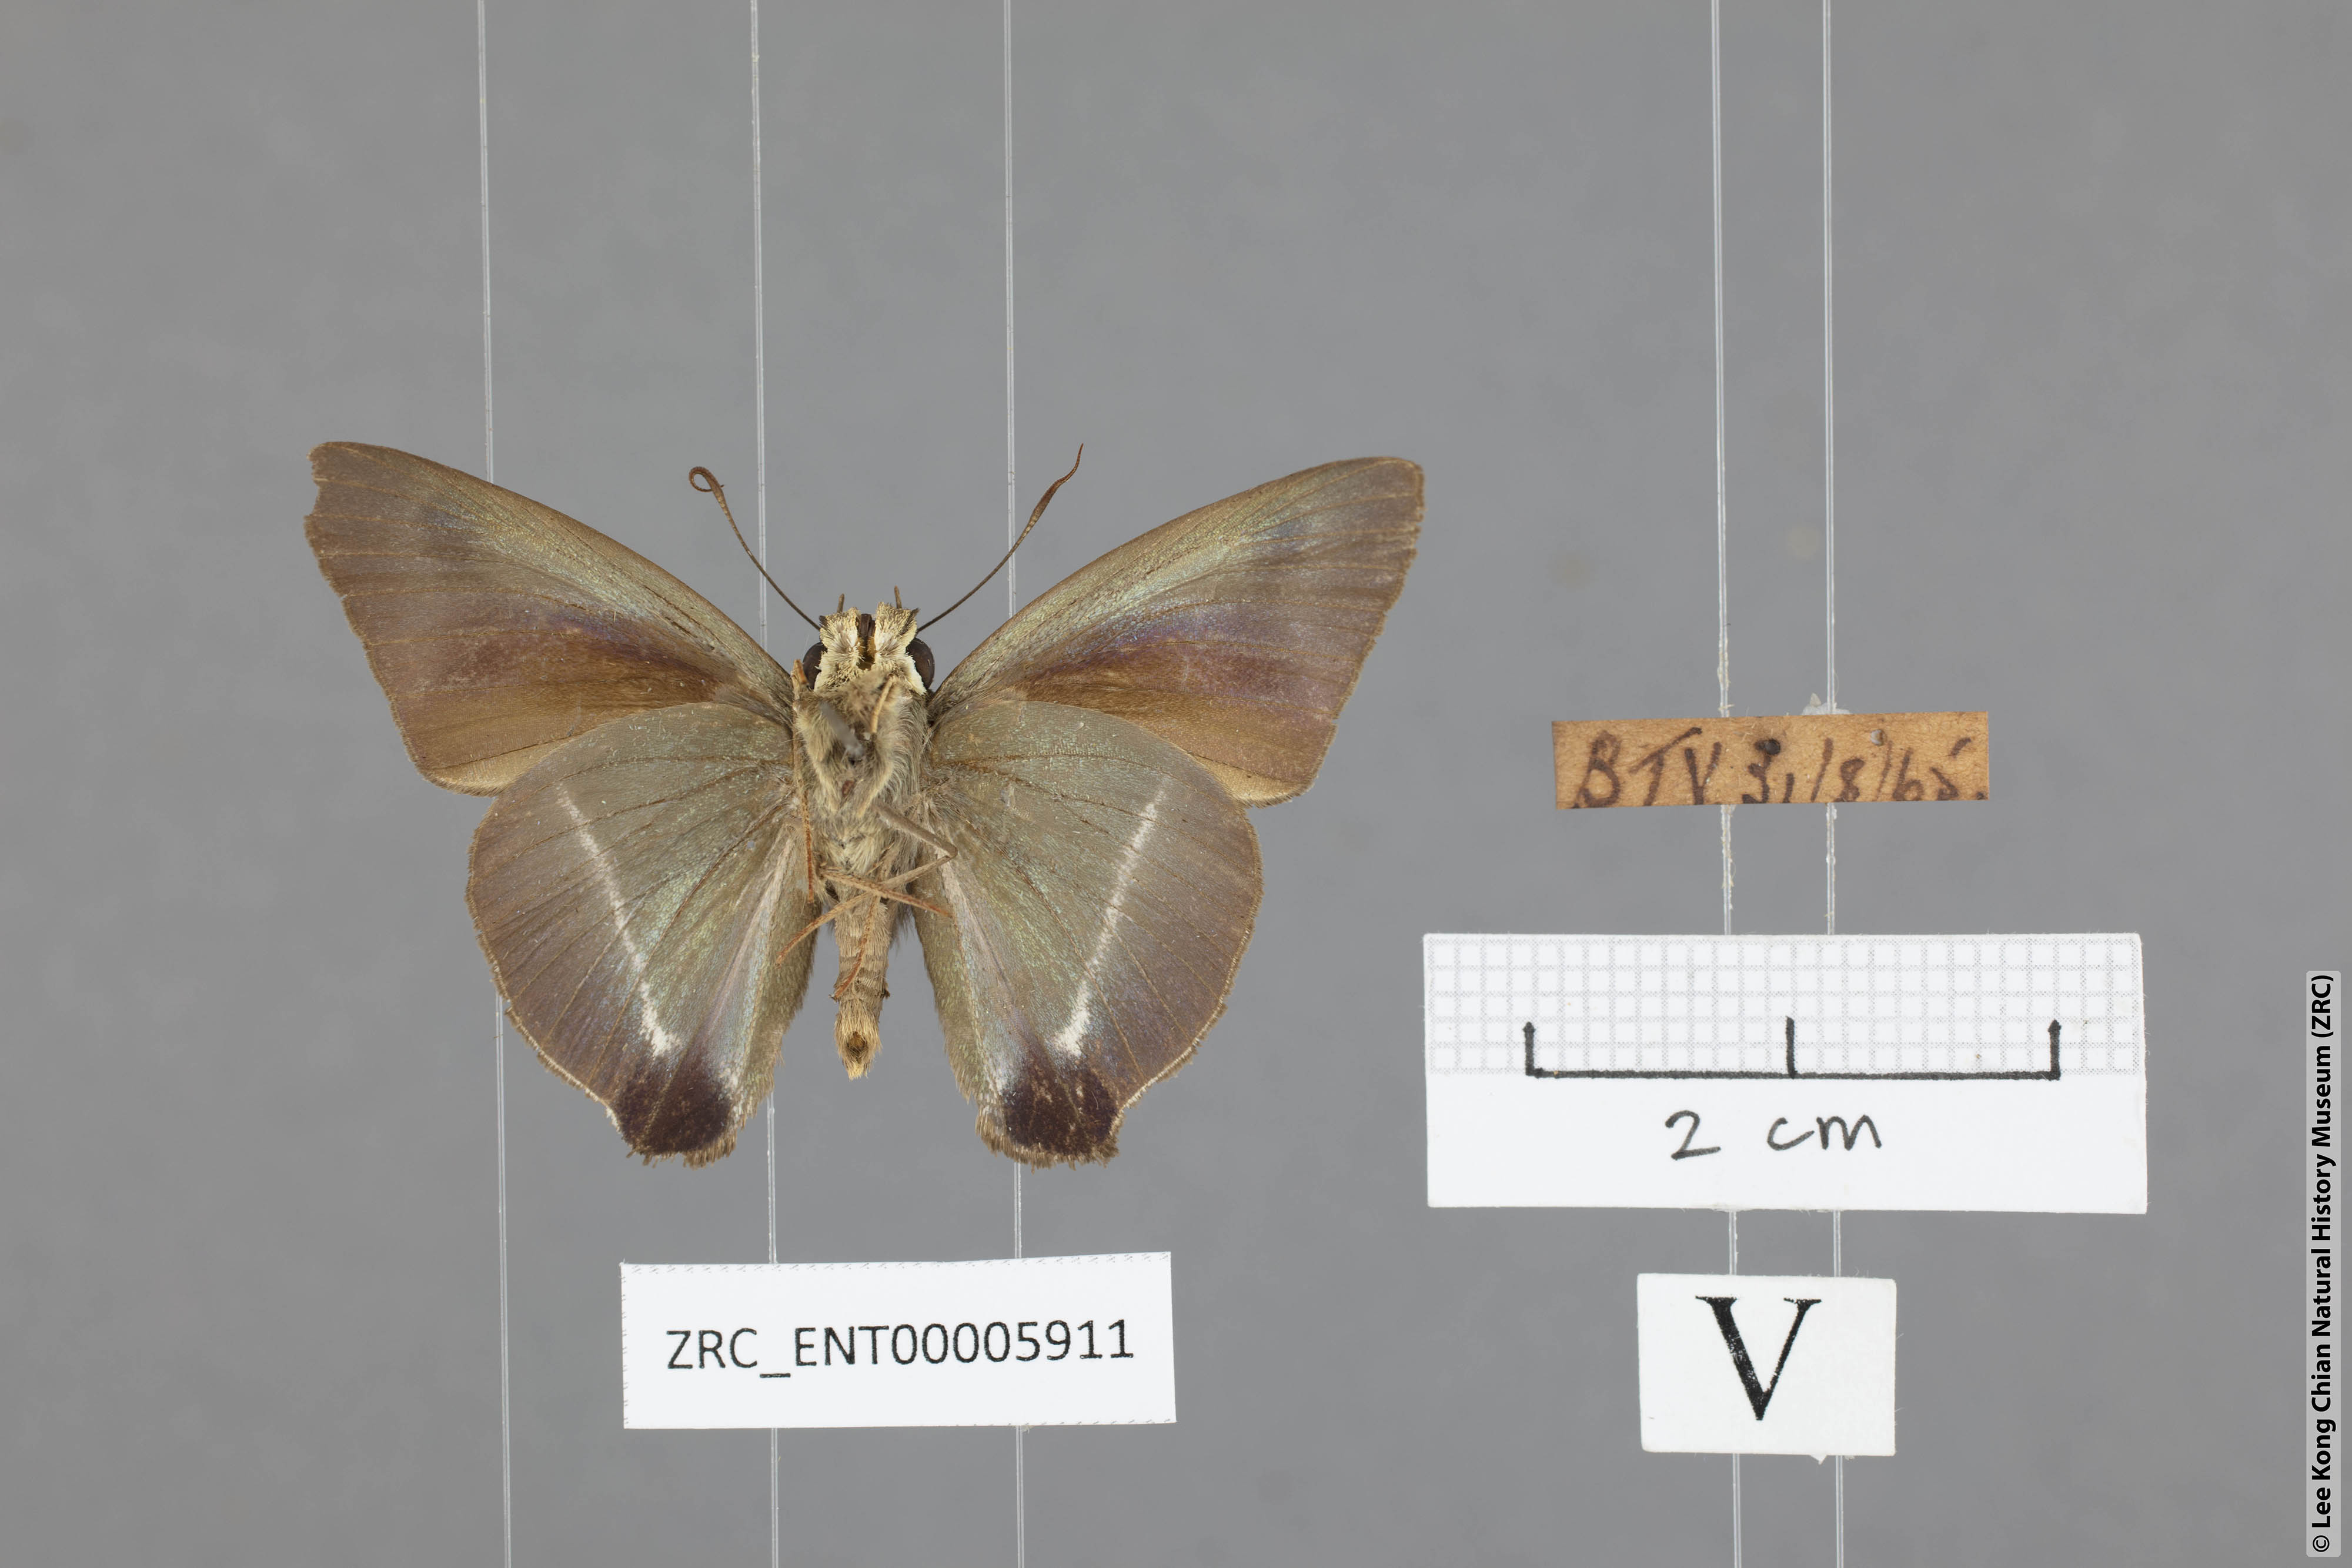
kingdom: Animalia
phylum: Arthropoda
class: Insecta
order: Lepidoptera
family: Hesperiidae
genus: Hasora
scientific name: Hasora taminatus
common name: White banded awl
